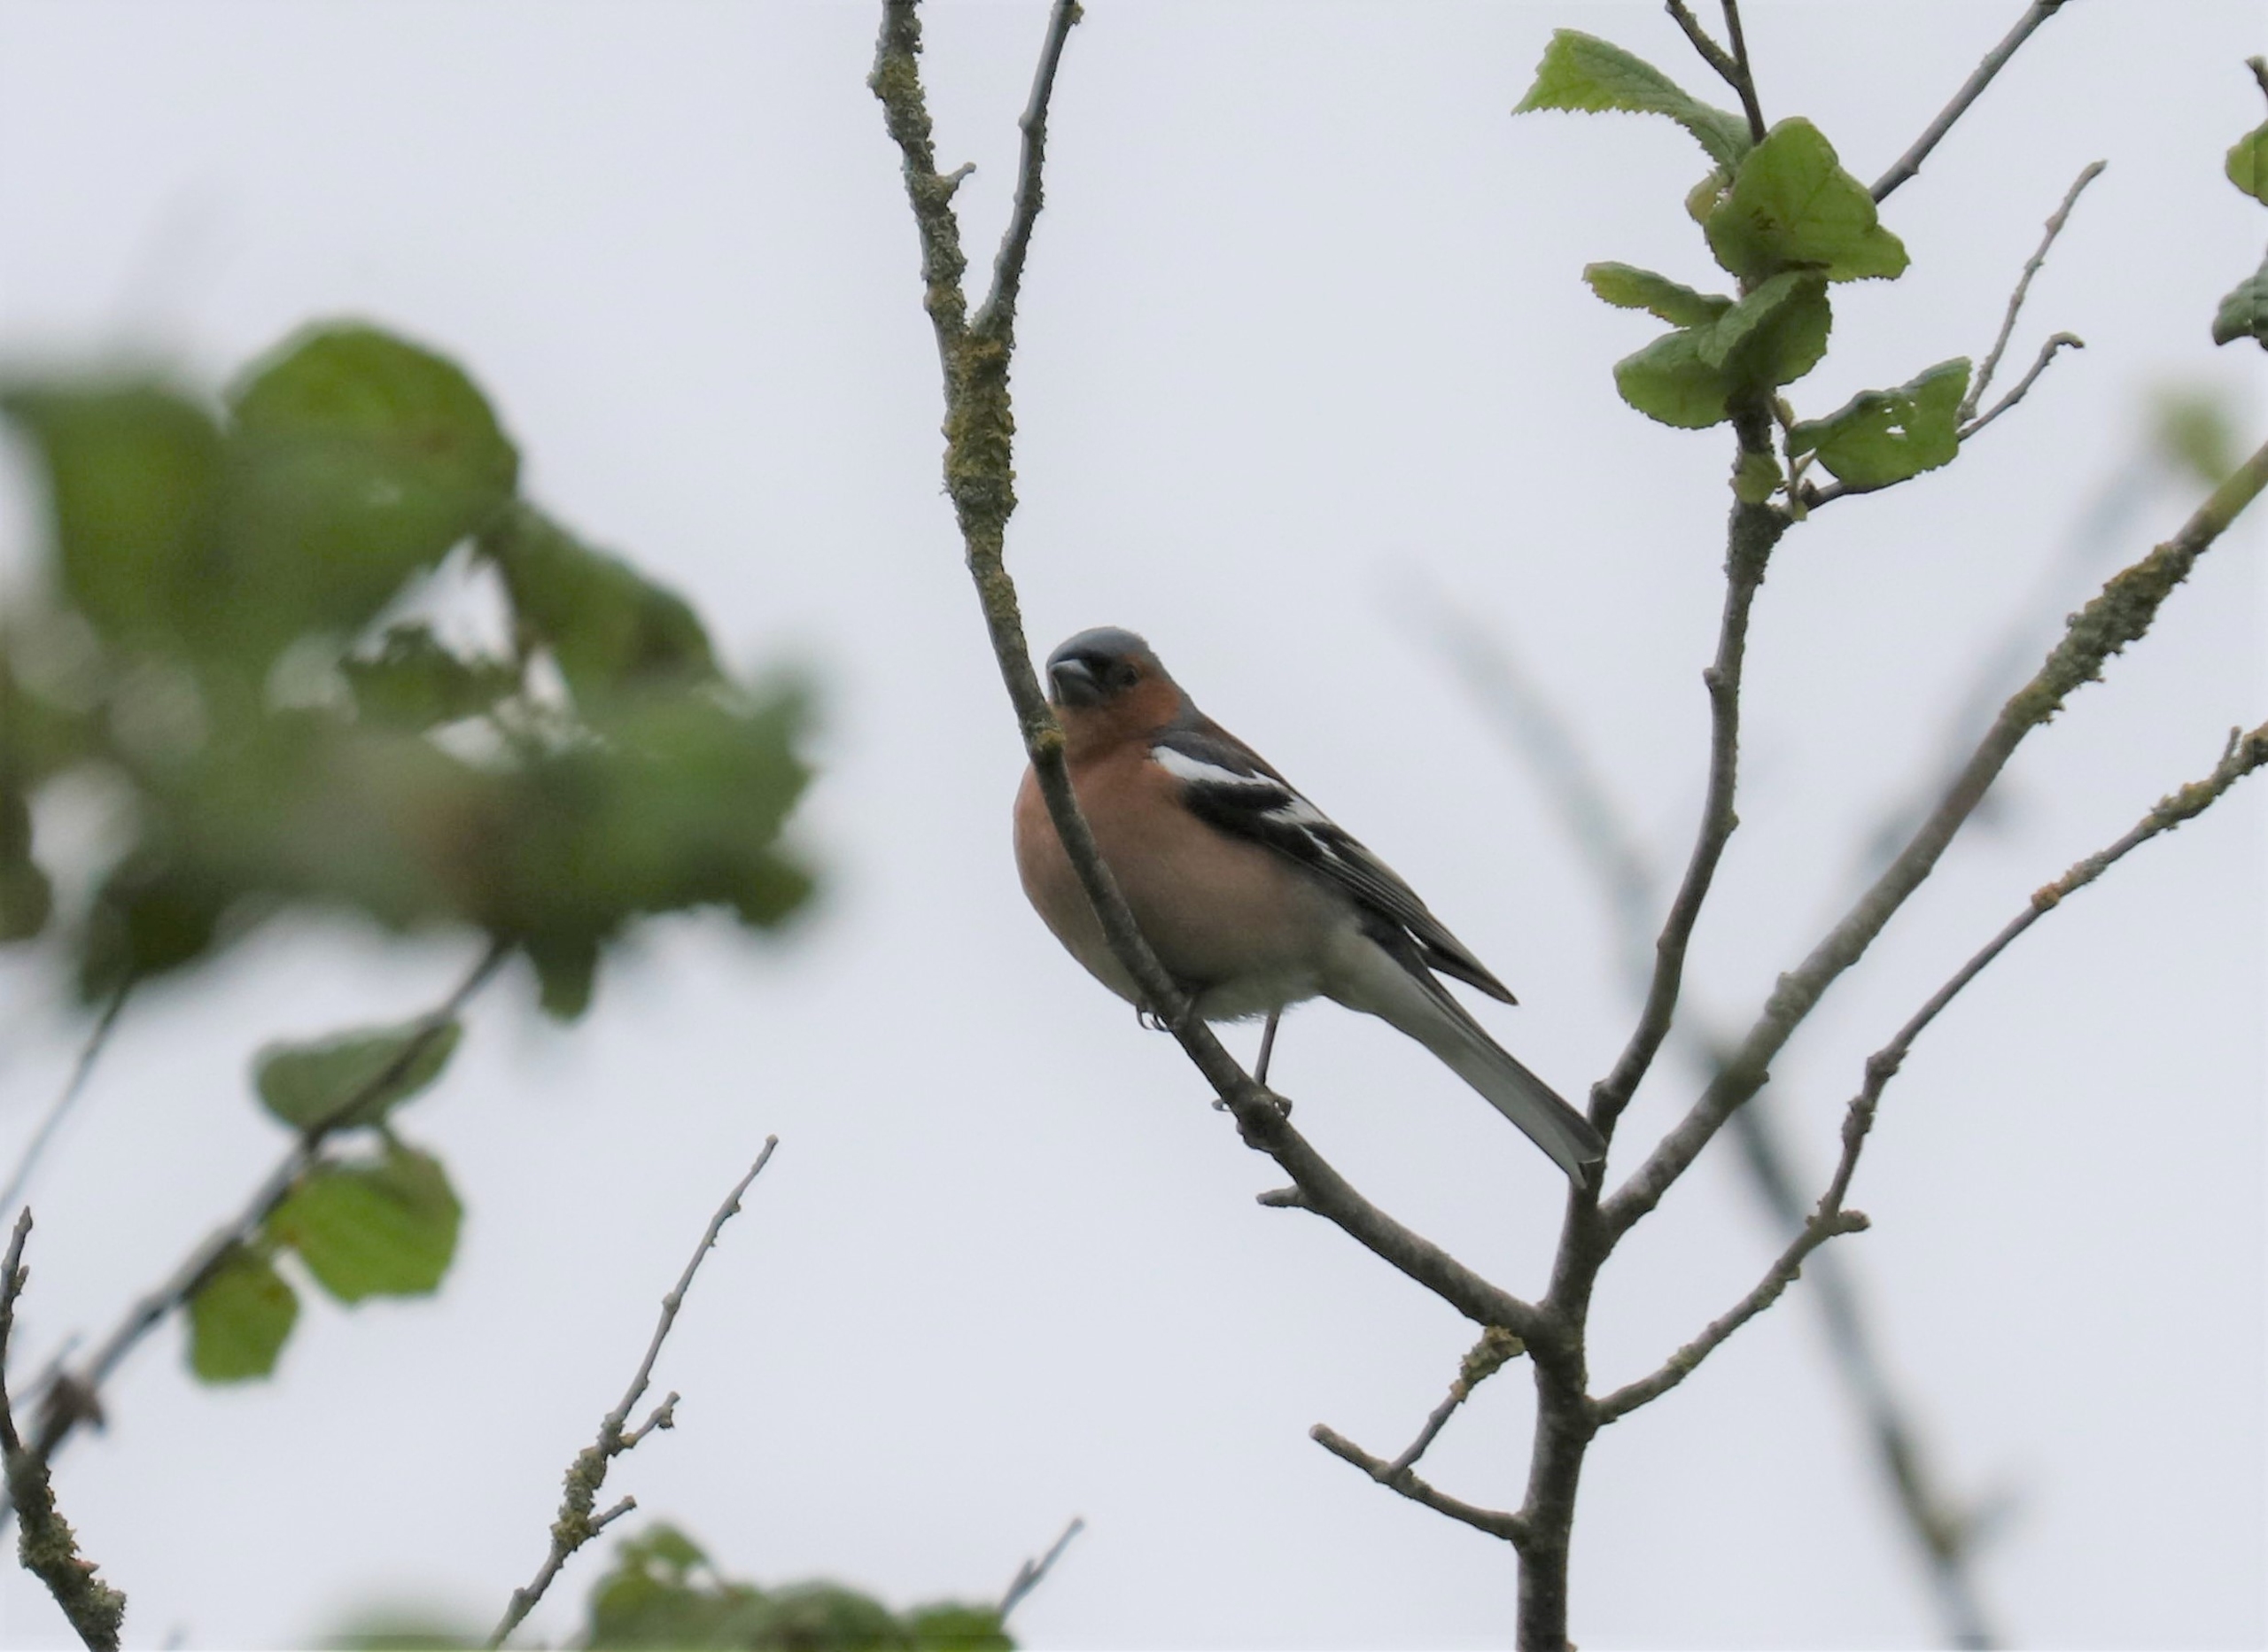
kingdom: Animalia
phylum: Chordata
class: Aves
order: Passeriformes
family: Fringillidae
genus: Fringilla
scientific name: Fringilla coelebs
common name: Bogfinke
